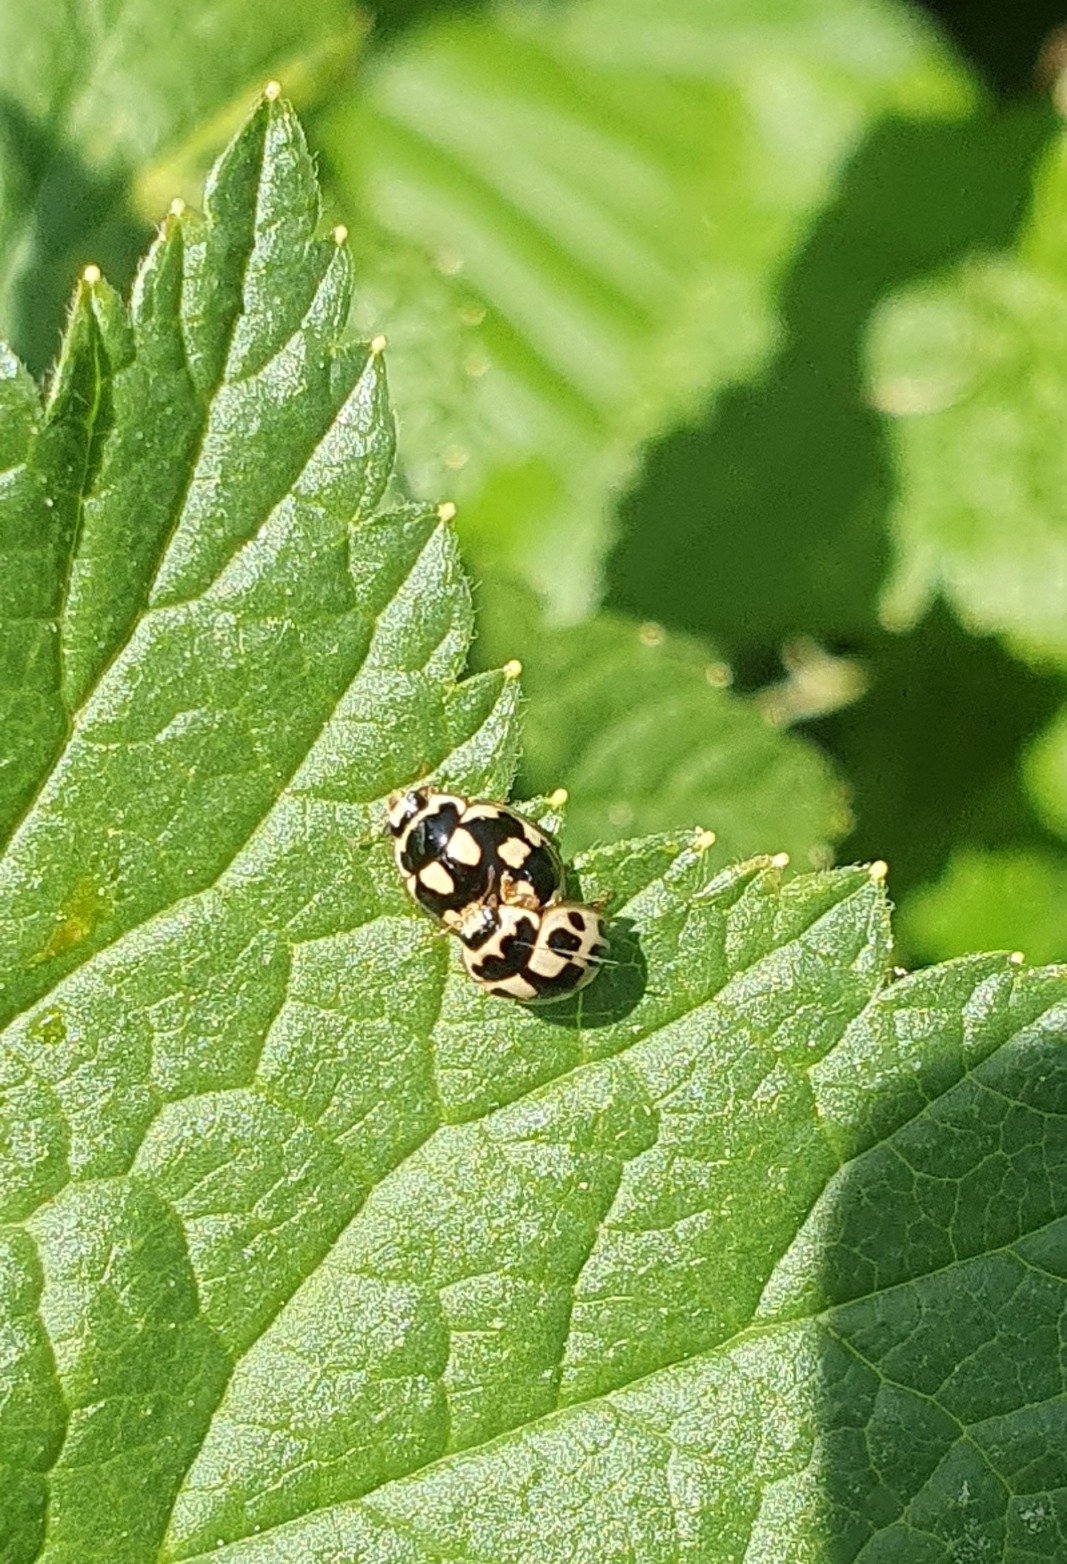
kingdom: Animalia
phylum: Arthropoda
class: Insecta
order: Coleoptera
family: Coccinellidae
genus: Propylaea
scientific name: Propylaea quatuordecimpunctata
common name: Skakbræt
